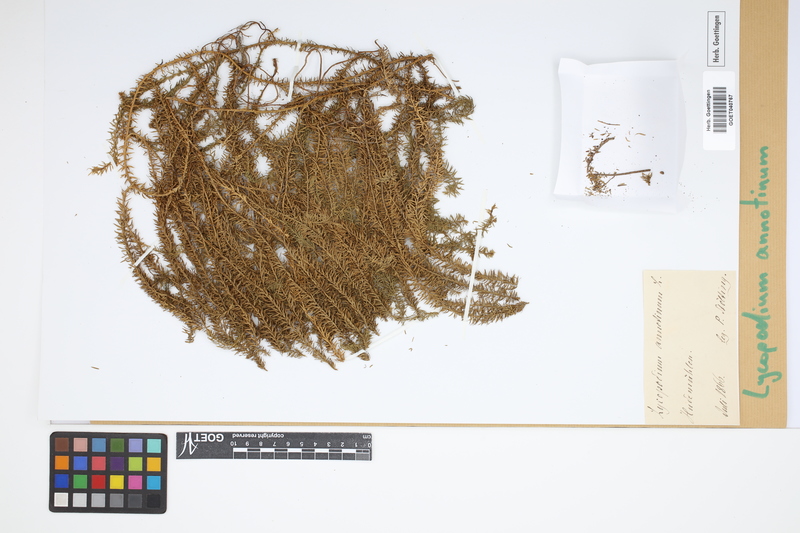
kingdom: Plantae
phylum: Tracheophyta
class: Lycopodiopsida
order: Lycopodiales
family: Lycopodiaceae
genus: Spinulum
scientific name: Spinulum annotinum
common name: Interrupted club-moss
